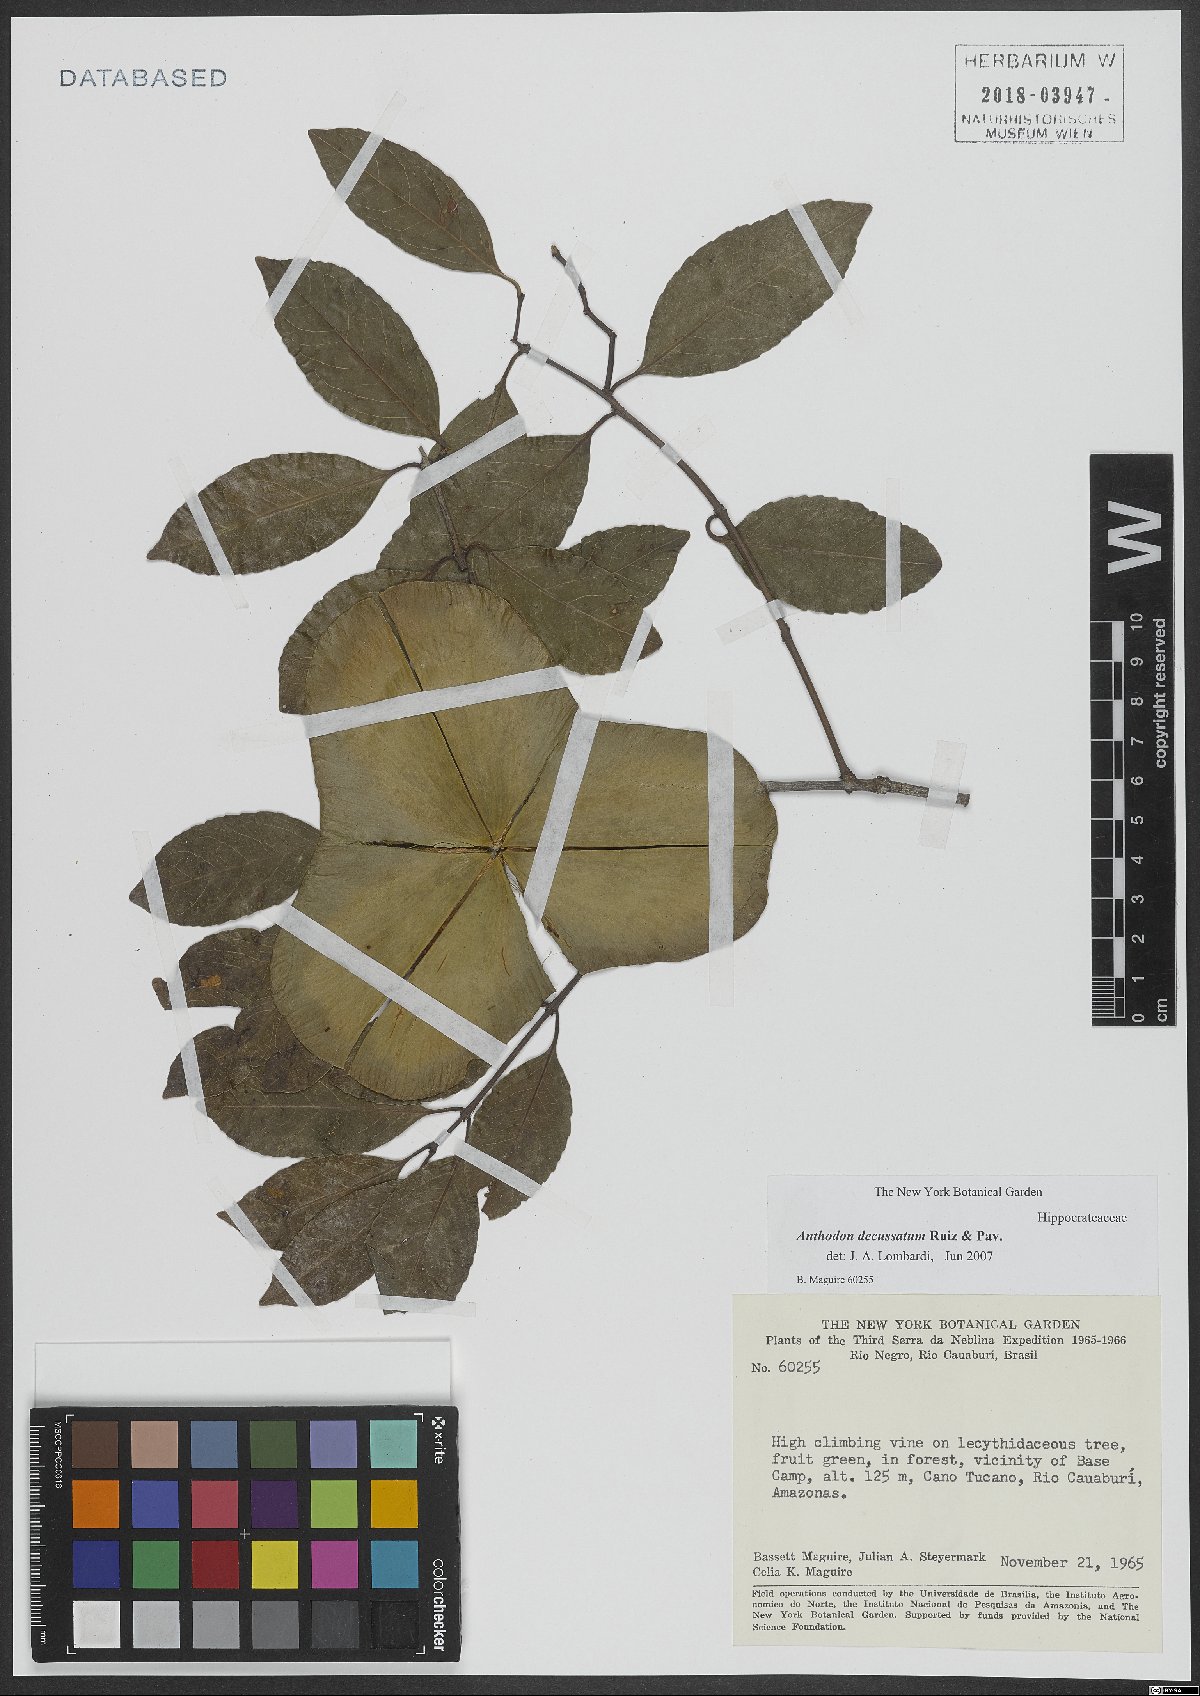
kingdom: Plantae
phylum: Tracheophyta
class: Magnoliopsida
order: Celastrales
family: Celastraceae
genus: Anthodon
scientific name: Anthodon decussatum
